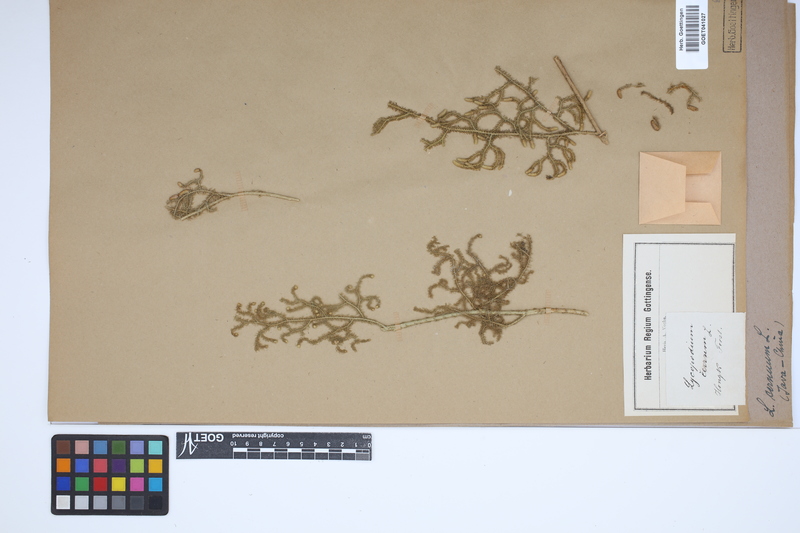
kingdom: Plantae
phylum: Tracheophyta
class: Lycopodiopsida
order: Lycopodiales
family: Lycopodiaceae
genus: Palhinhaea
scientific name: Palhinhaea cernua
